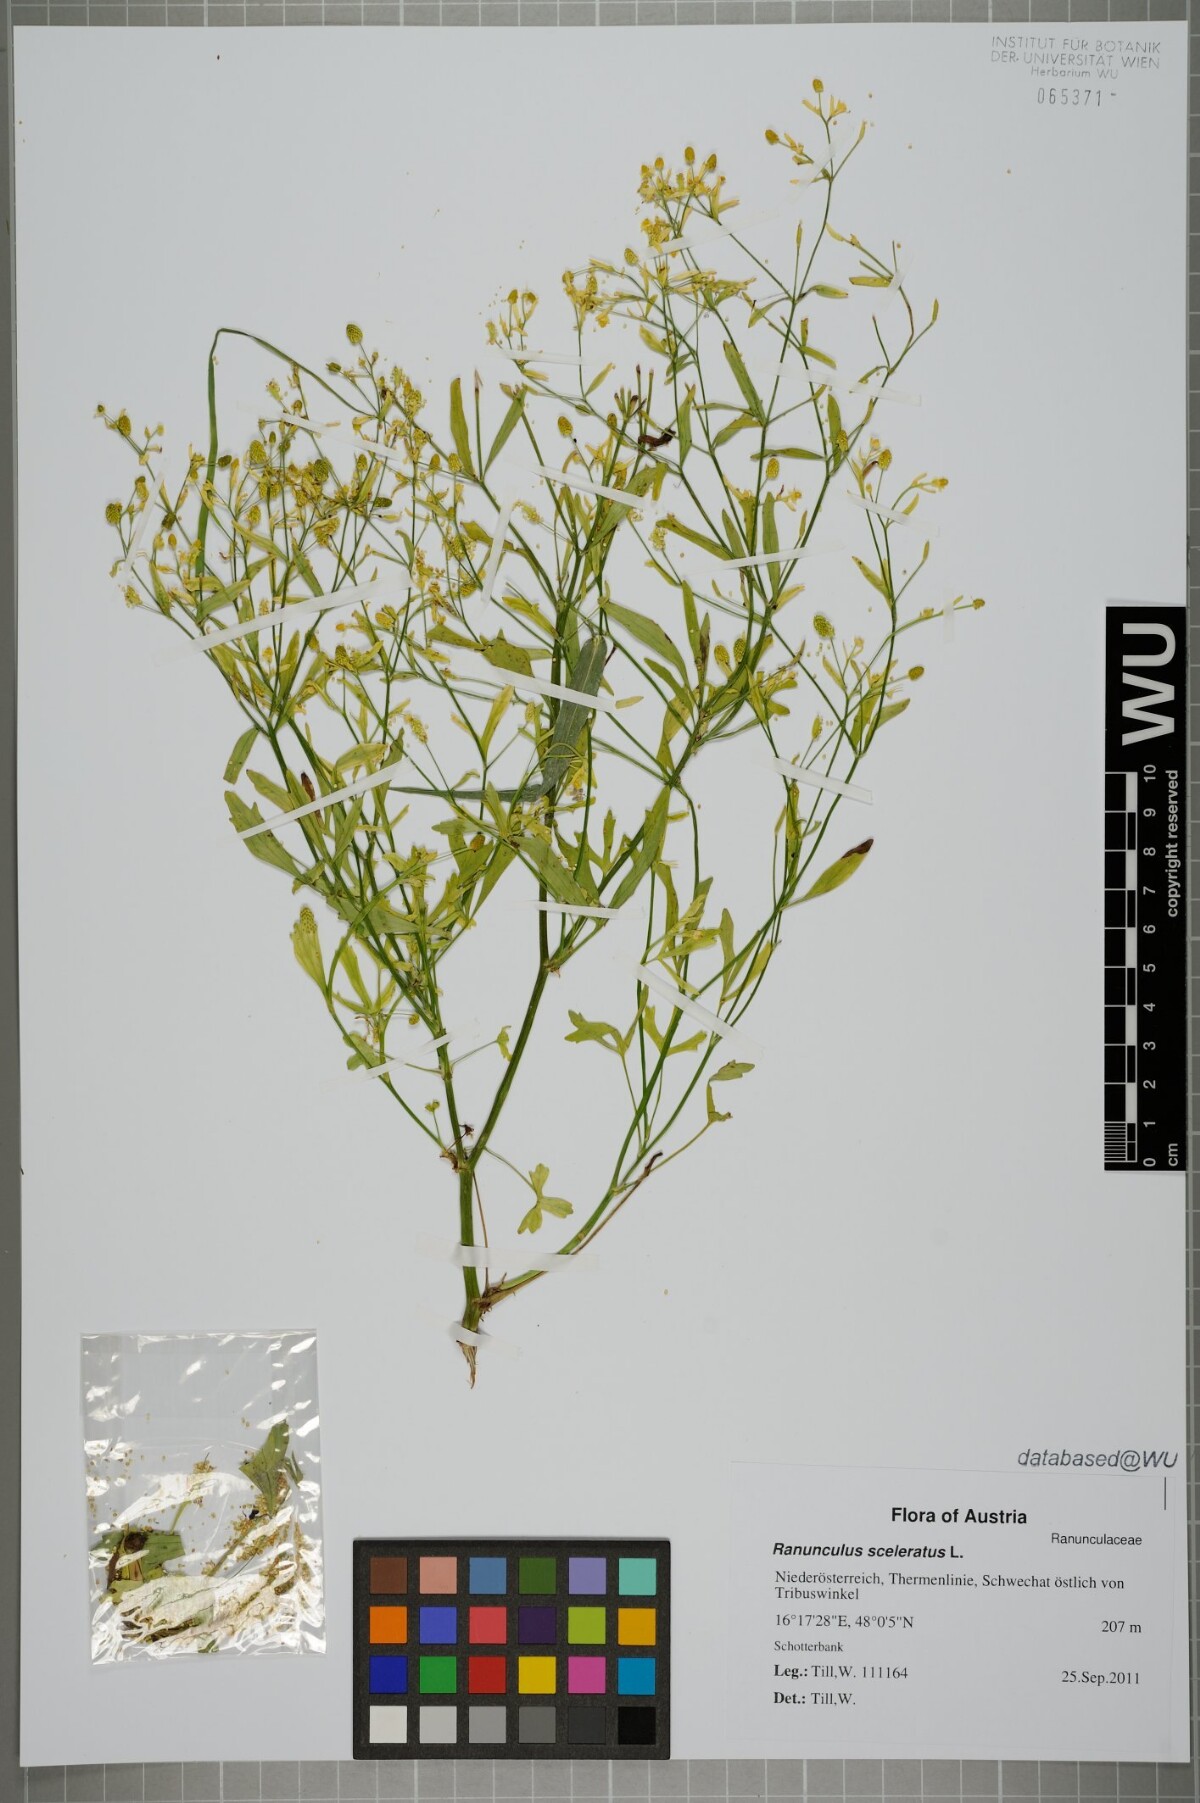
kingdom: Plantae
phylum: Tracheophyta
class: Magnoliopsida
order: Ranunculales
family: Ranunculaceae
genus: Ranunculus
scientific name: Ranunculus sceleratus
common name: Celery-leaved buttercup
